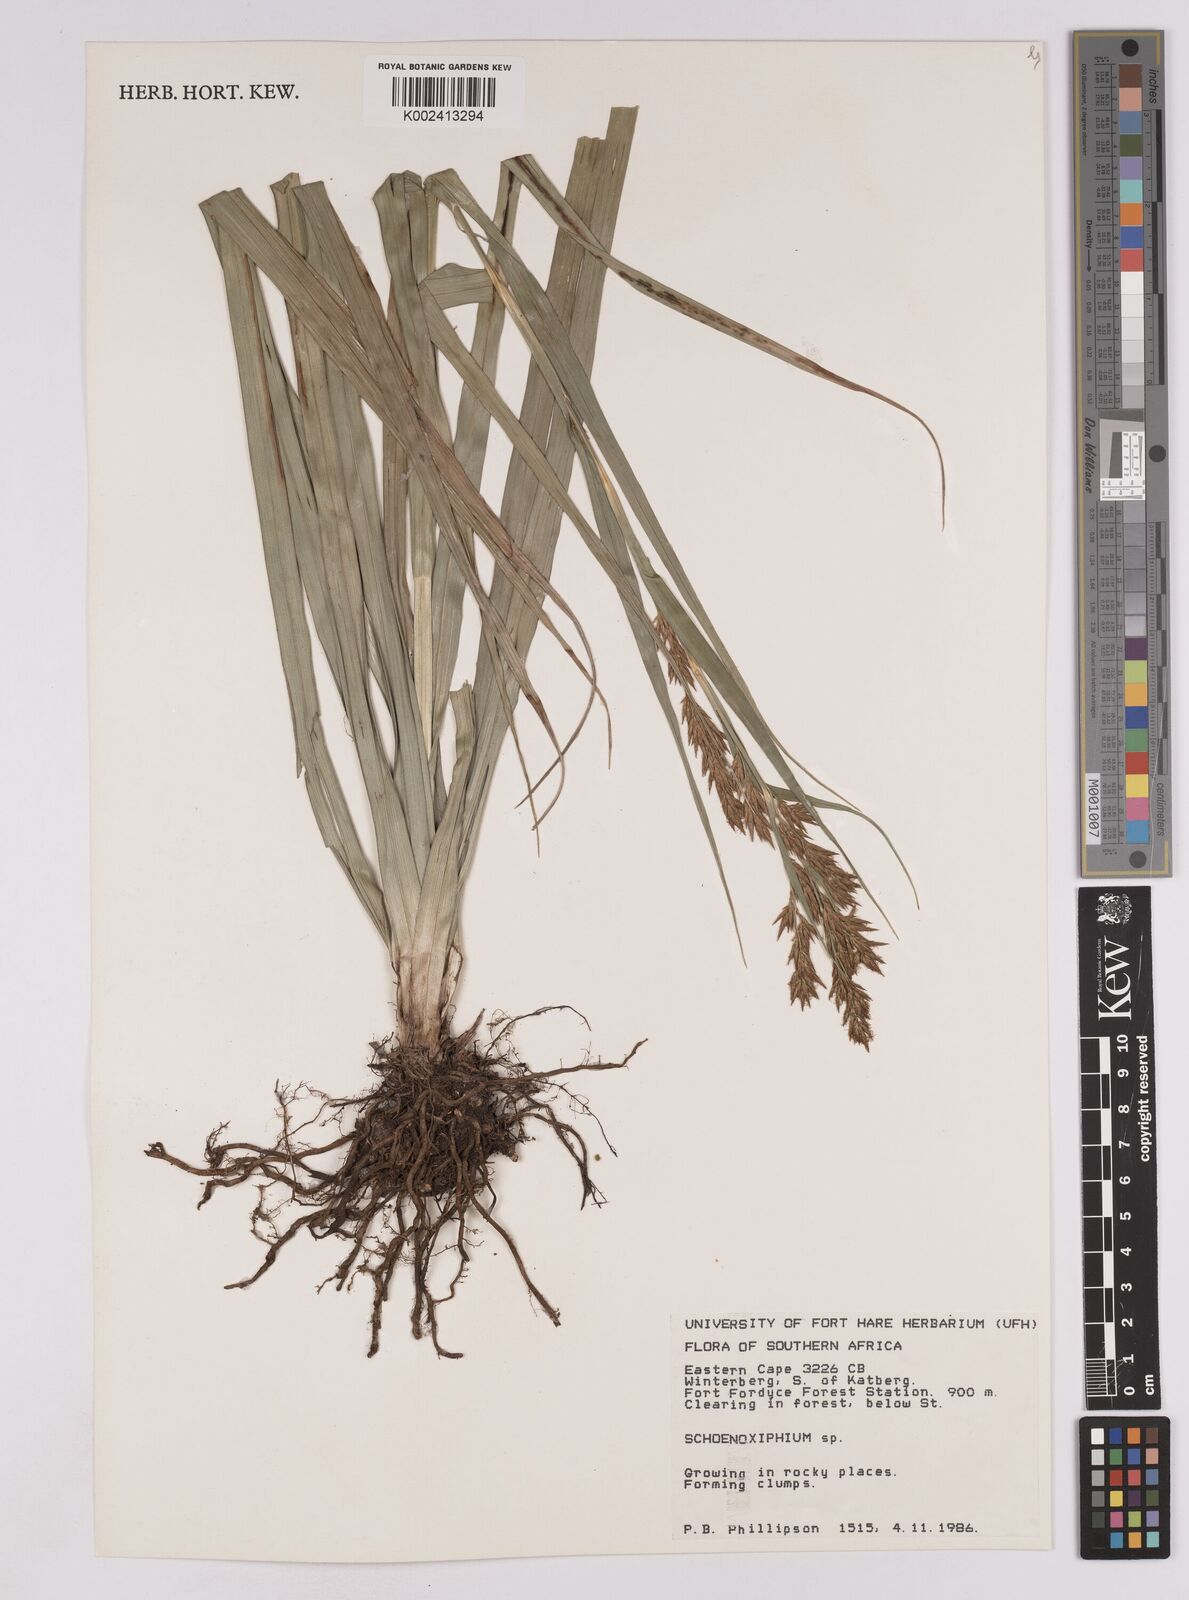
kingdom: Plantae
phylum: Tracheophyta
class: Liliopsida
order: Poales
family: Cyperaceae
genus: Carex
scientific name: Carex
